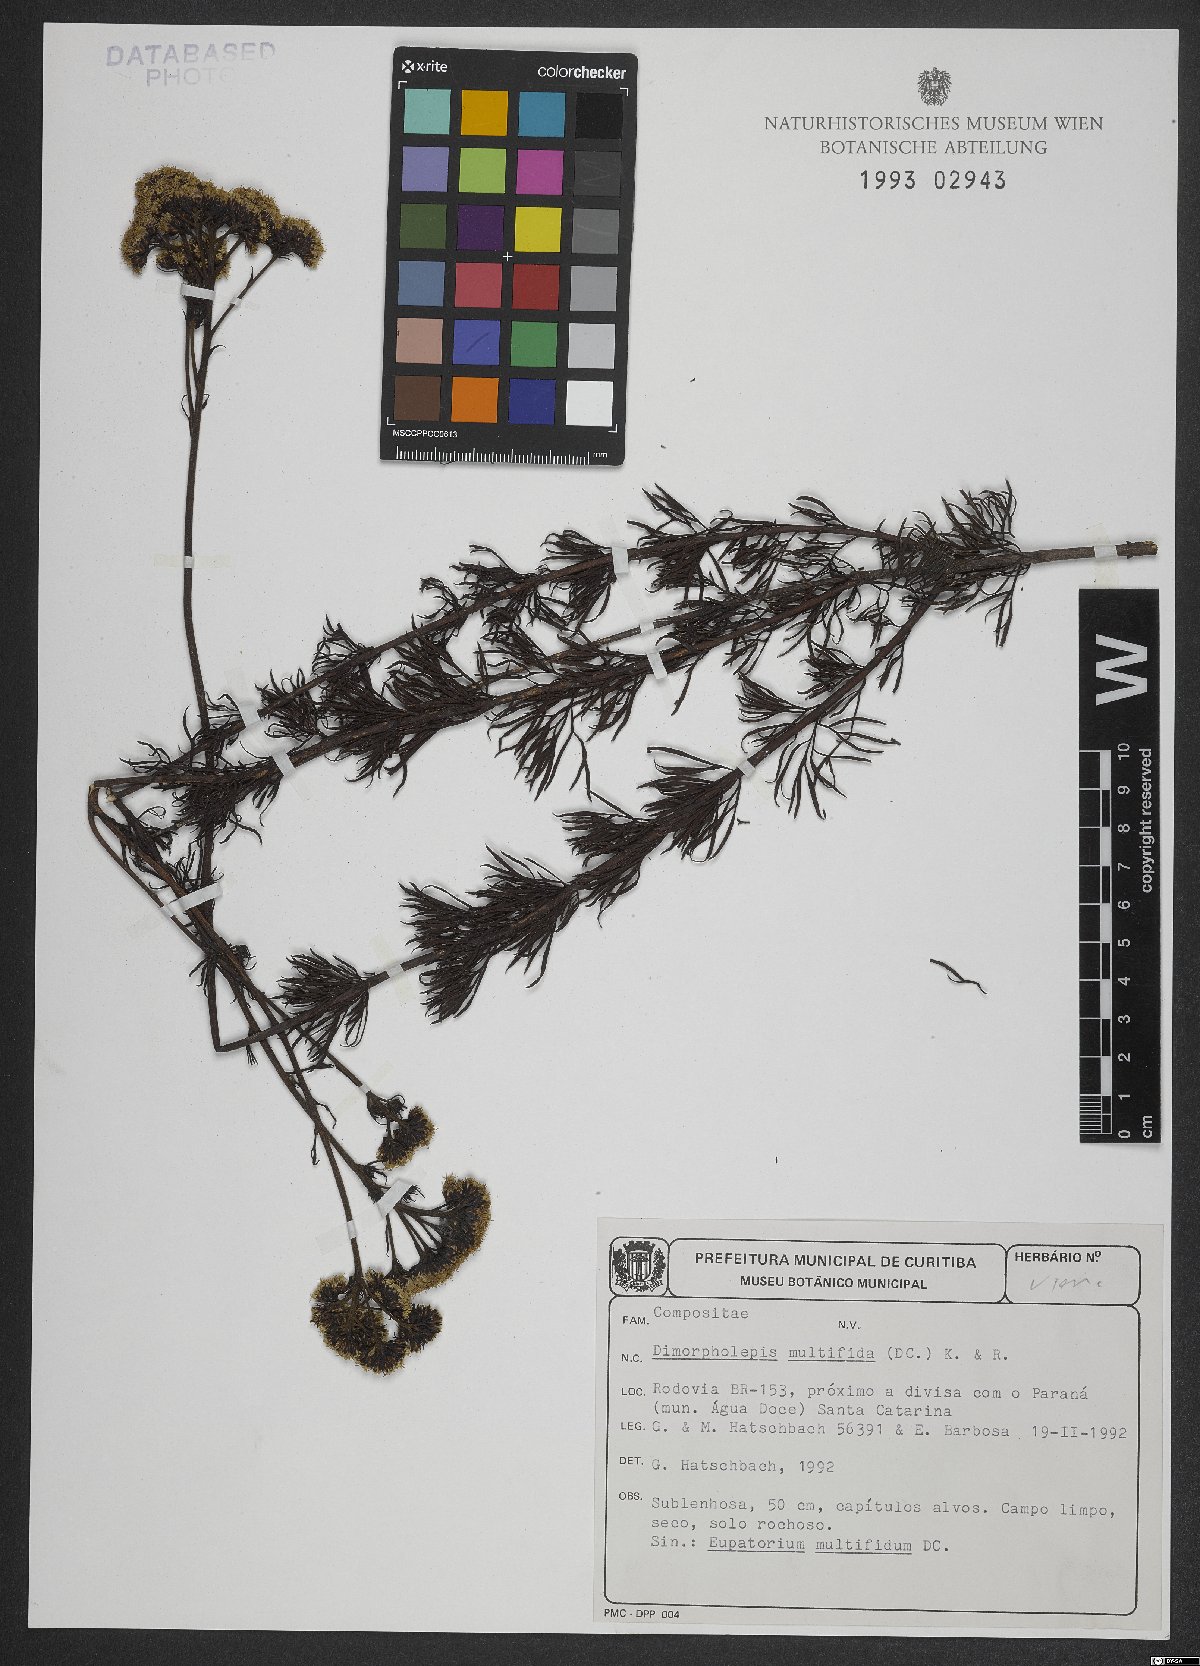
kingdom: Plantae
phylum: Tracheophyta
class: Magnoliopsida
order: Asterales
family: Asteraceae
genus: Grazielia
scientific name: Grazielia multifida
